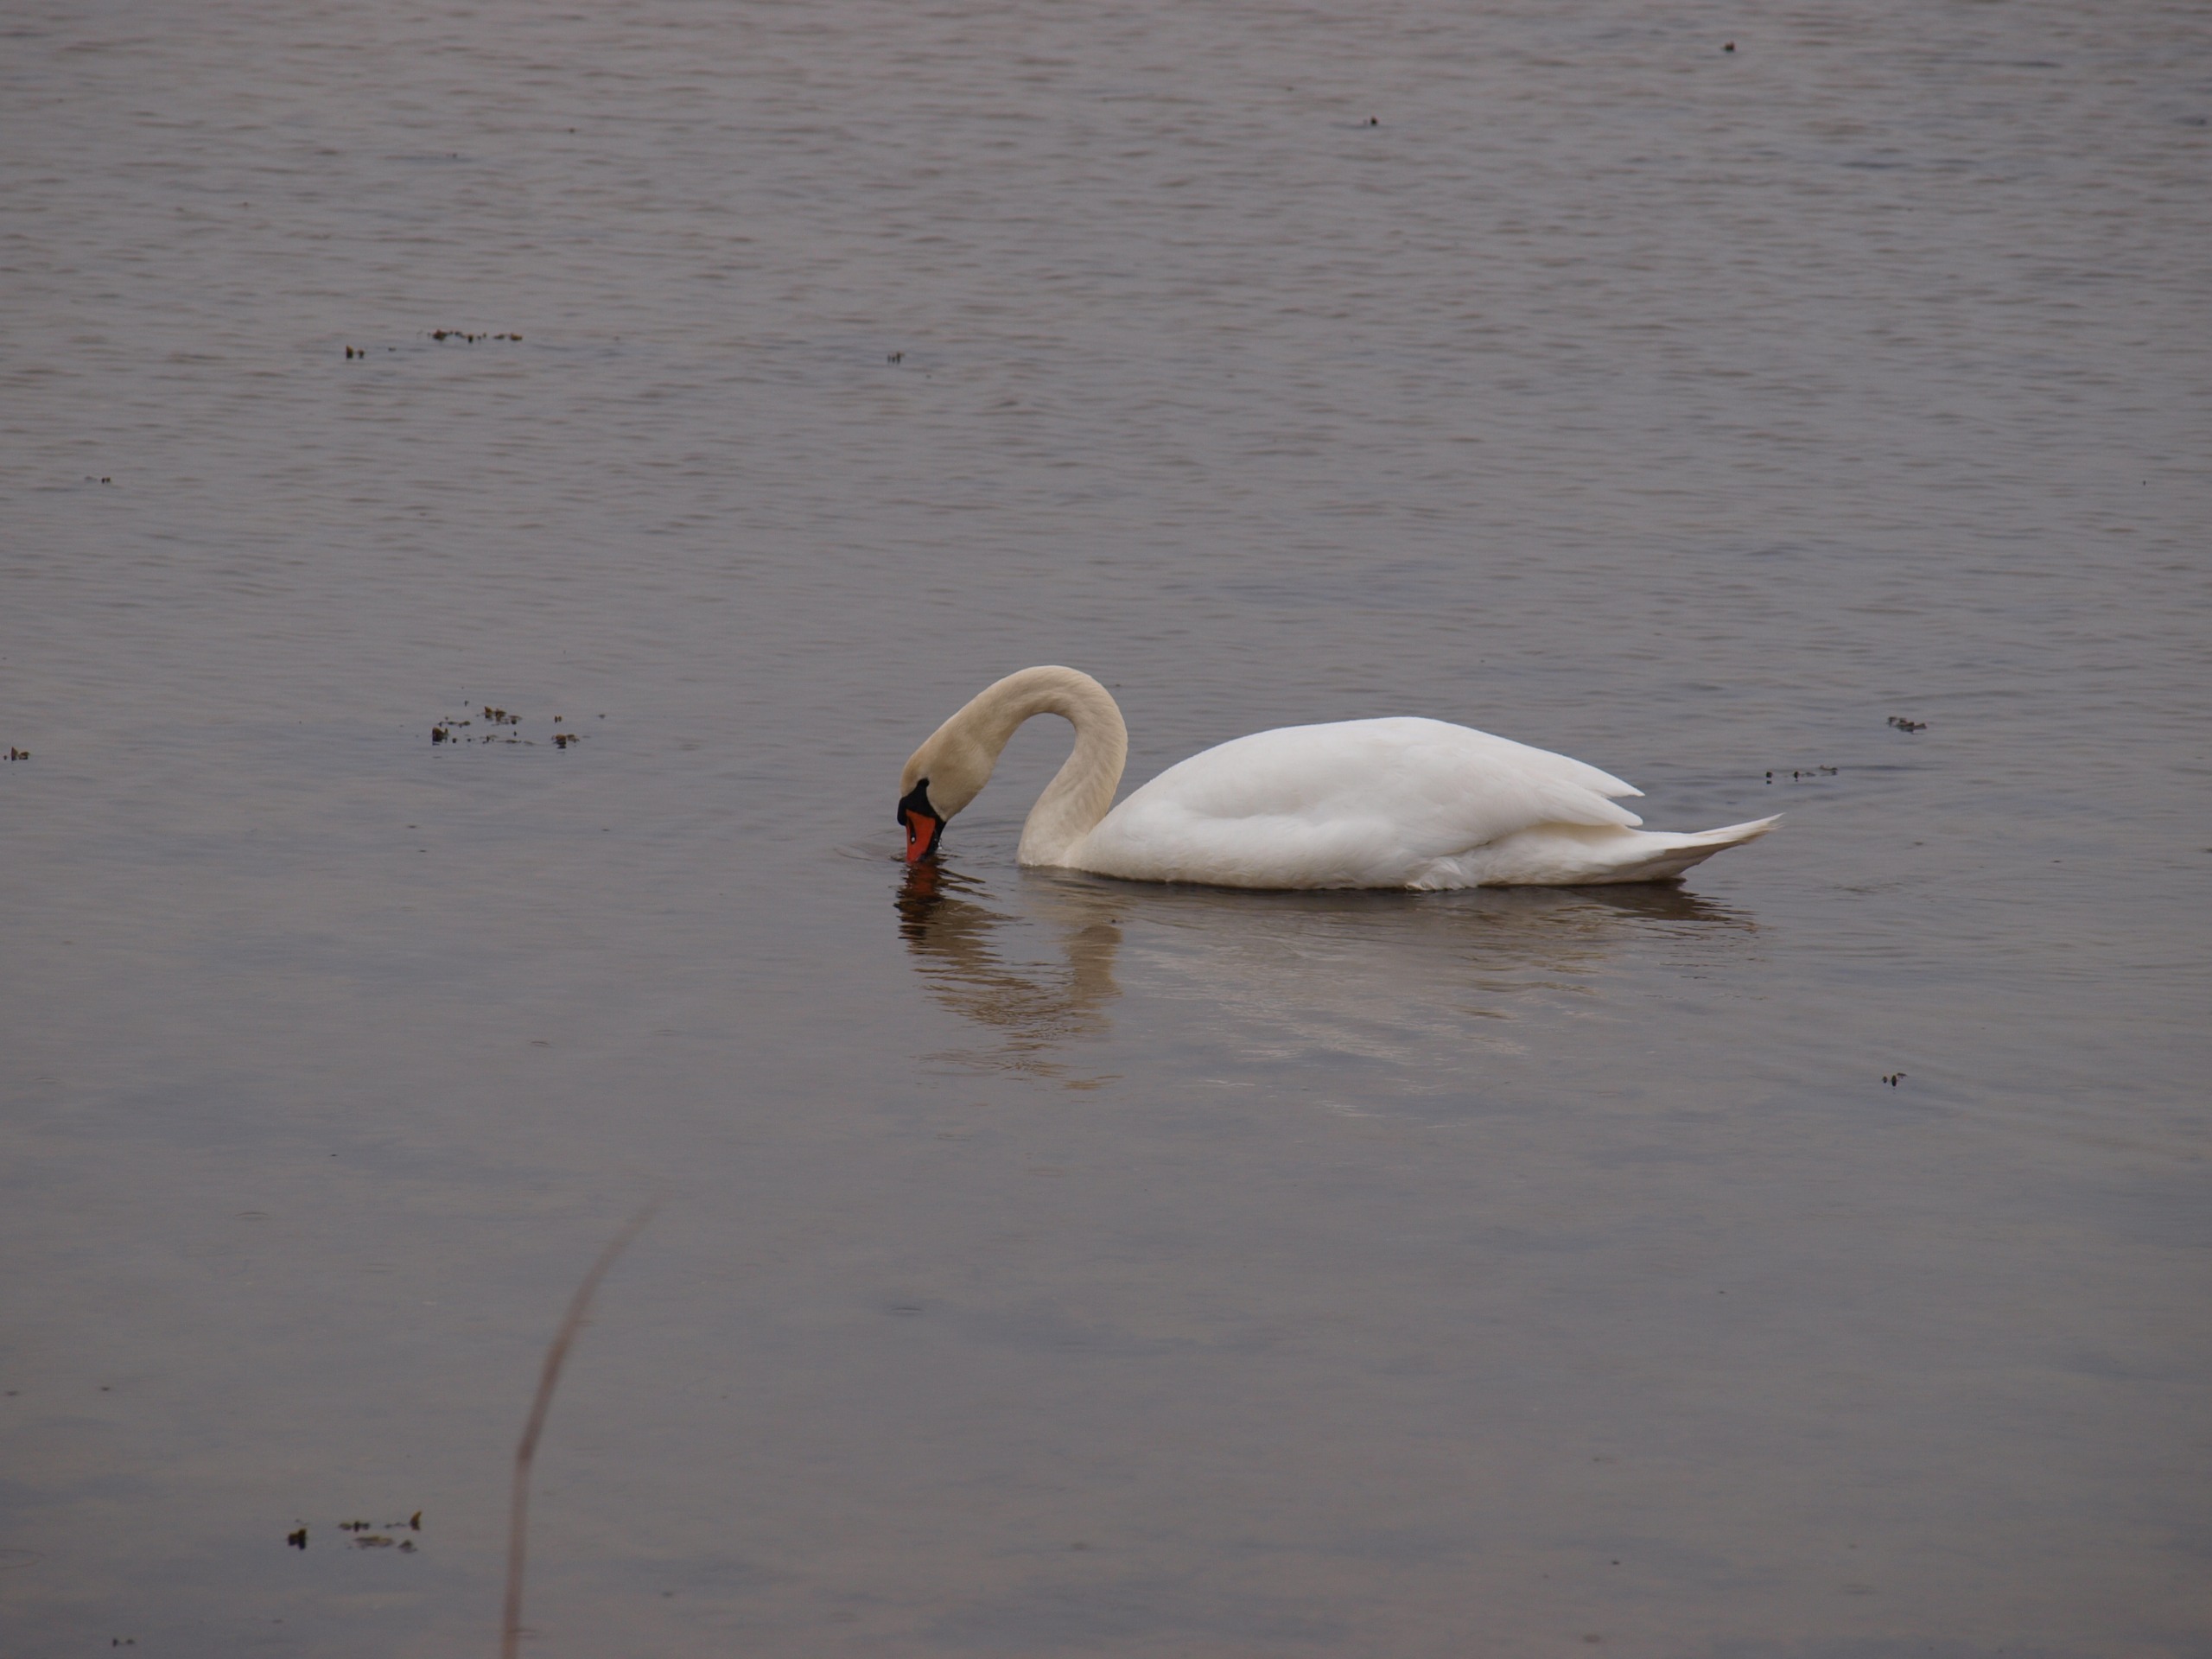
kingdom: Animalia
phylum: Chordata
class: Aves
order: Anseriformes
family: Anatidae
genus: Cygnus
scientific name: Cygnus olor
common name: Knopsvane
